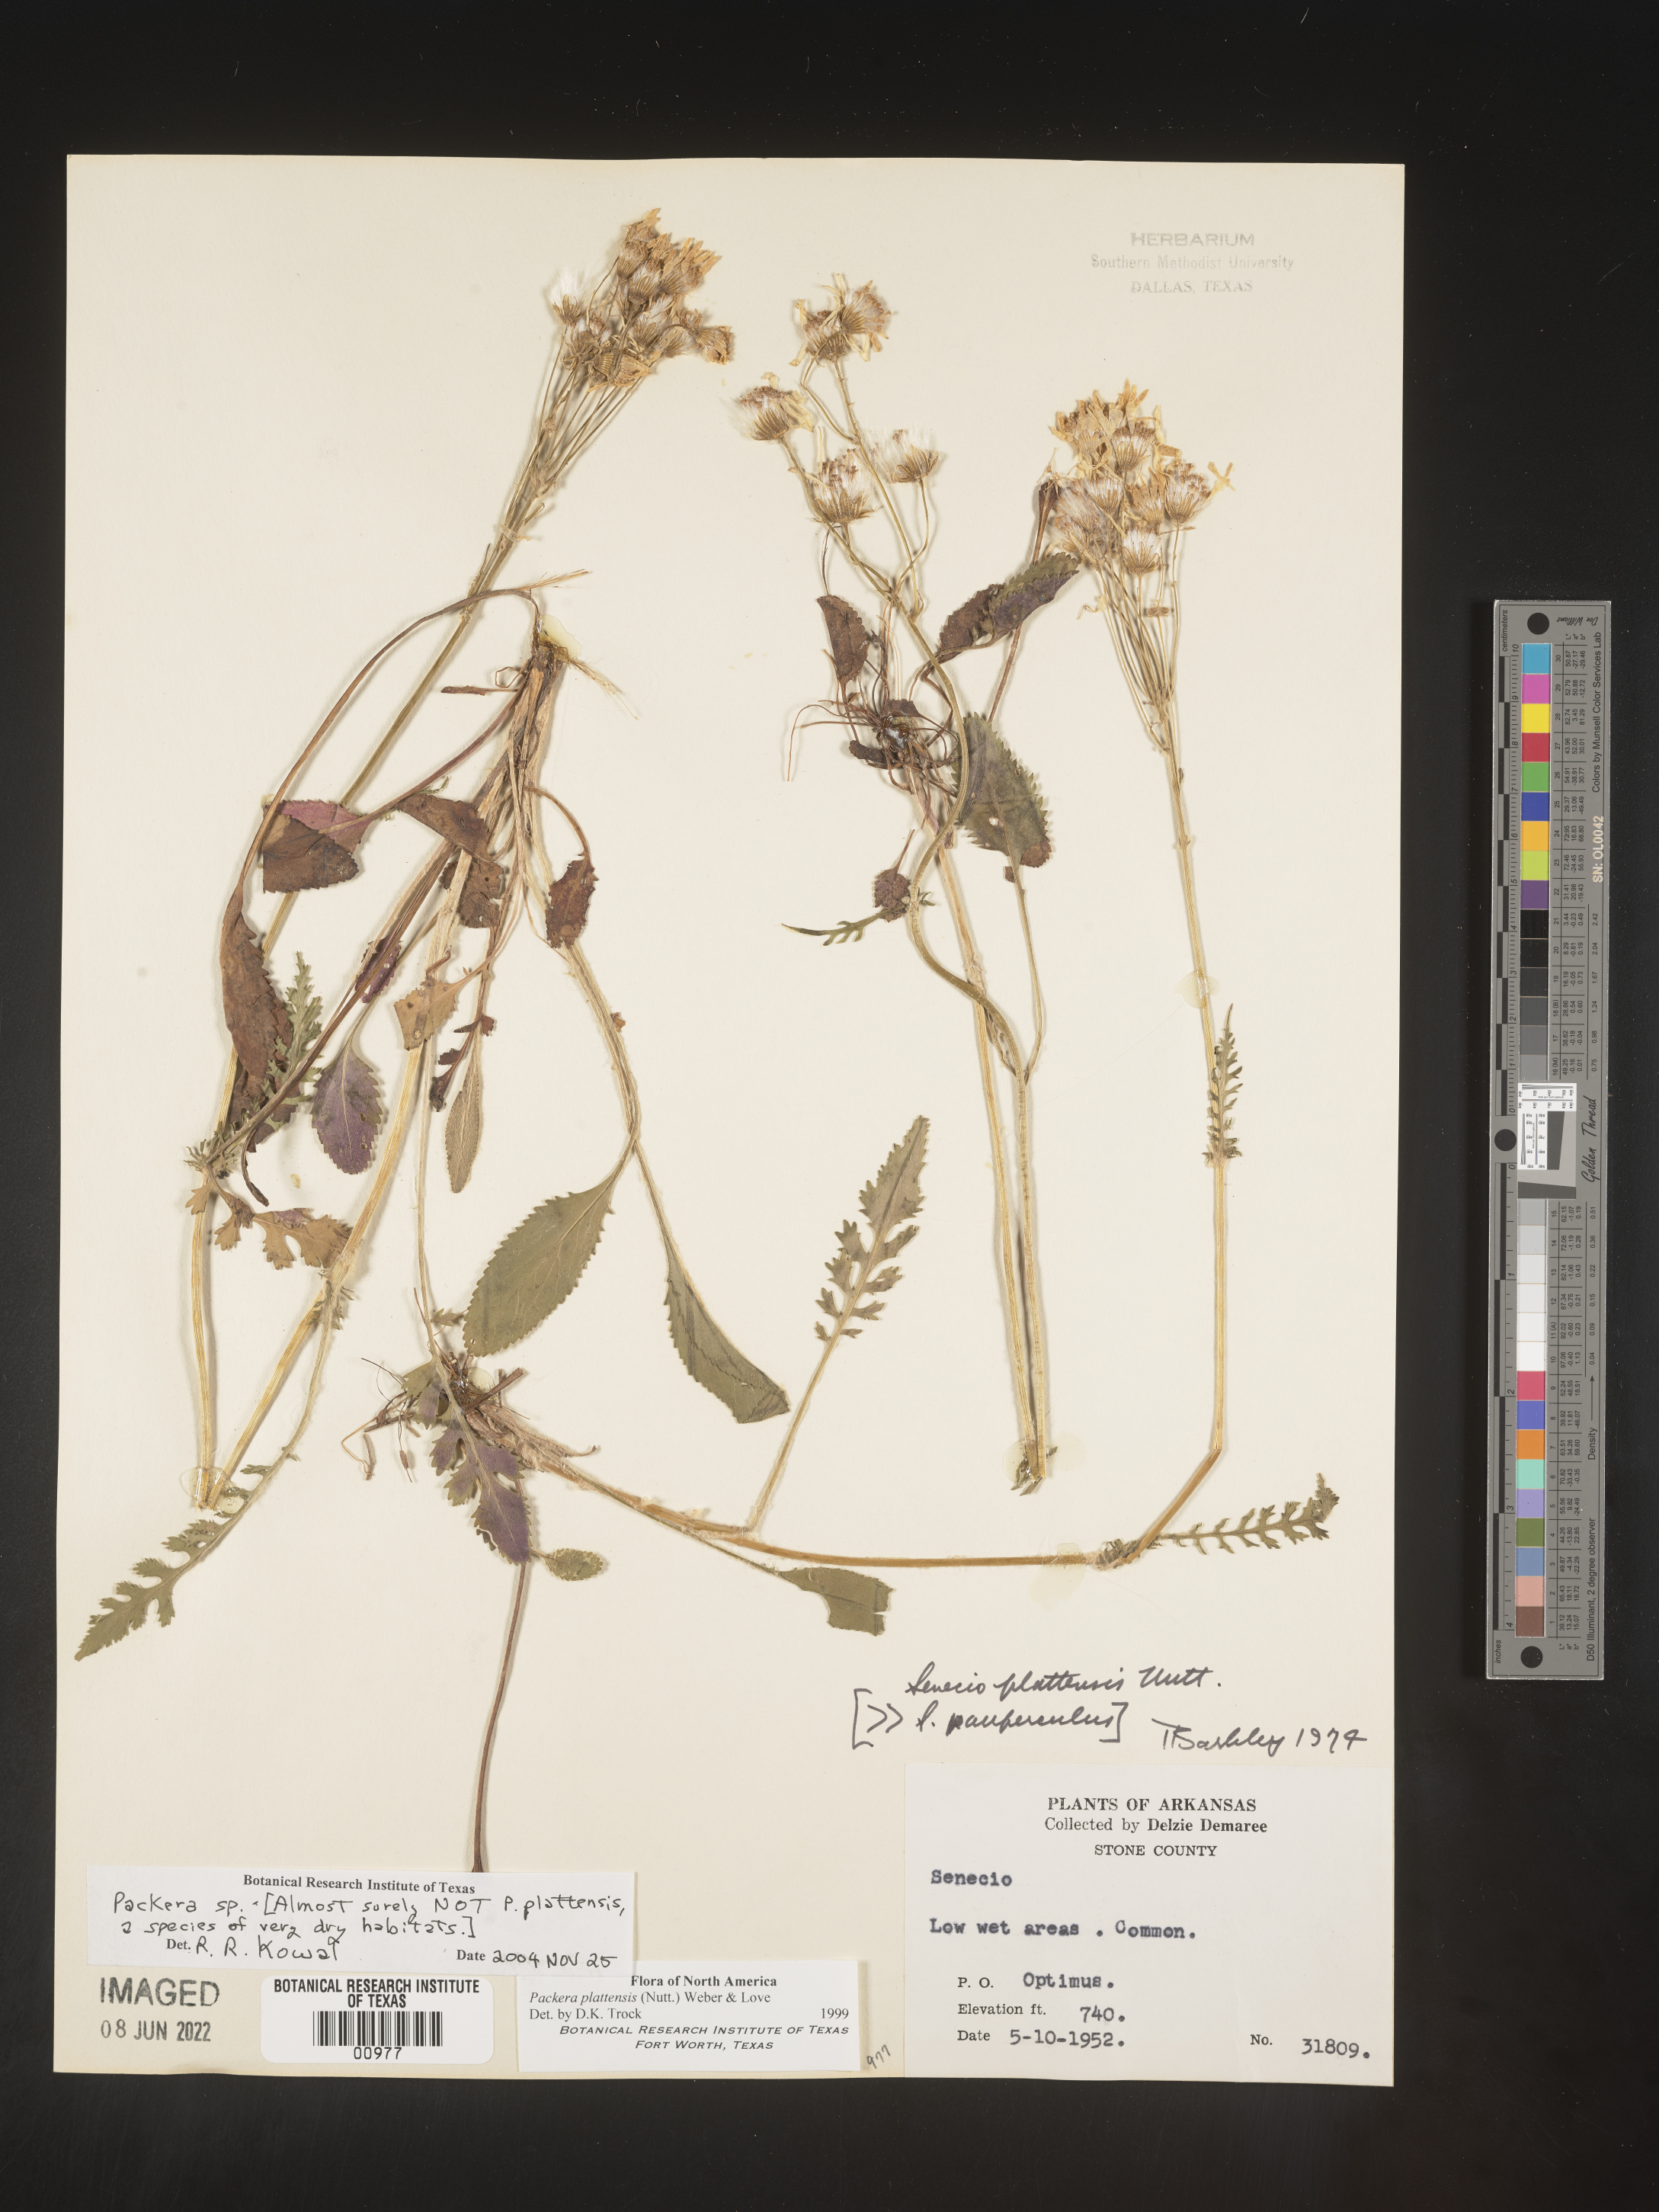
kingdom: Plantae
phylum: Tracheophyta
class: Magnoliopsida
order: Asterales
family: Asteraceae
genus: Packera
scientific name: Packera
